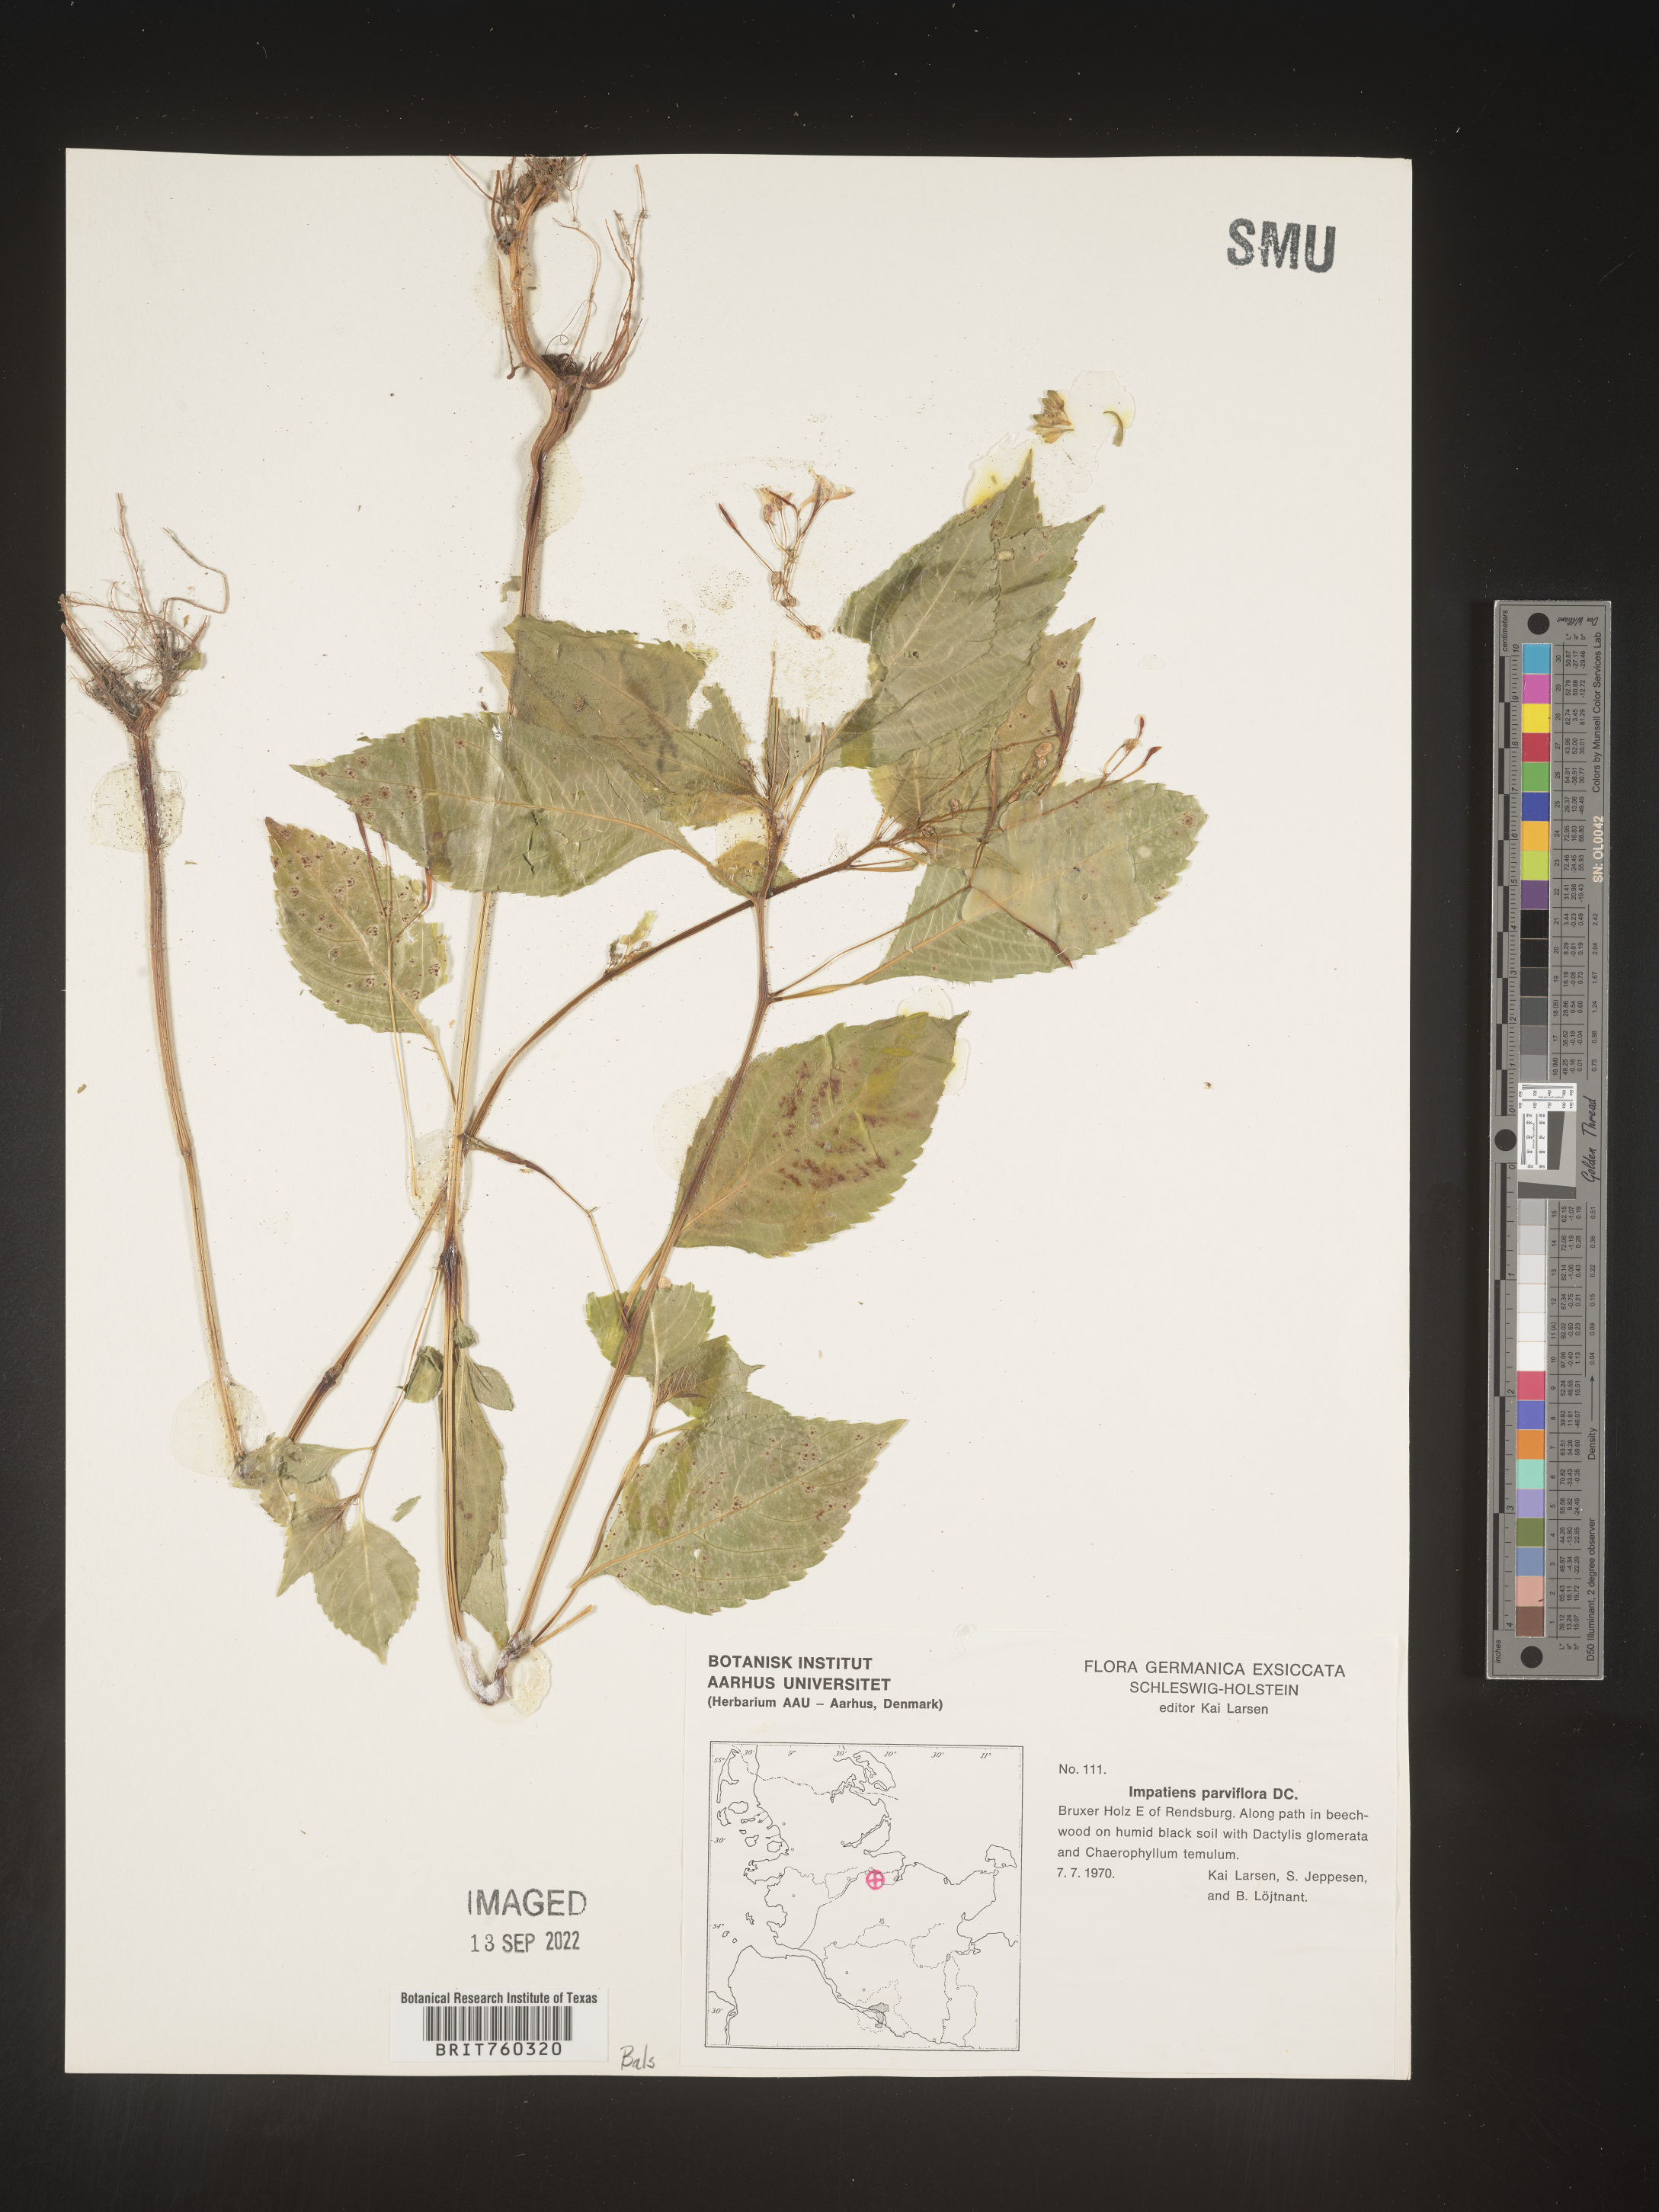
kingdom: Plantae
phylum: Tracheophyta
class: Magnoliopsida
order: Ericales
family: Balsaminaceae
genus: Impatiens
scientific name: Impatiens
